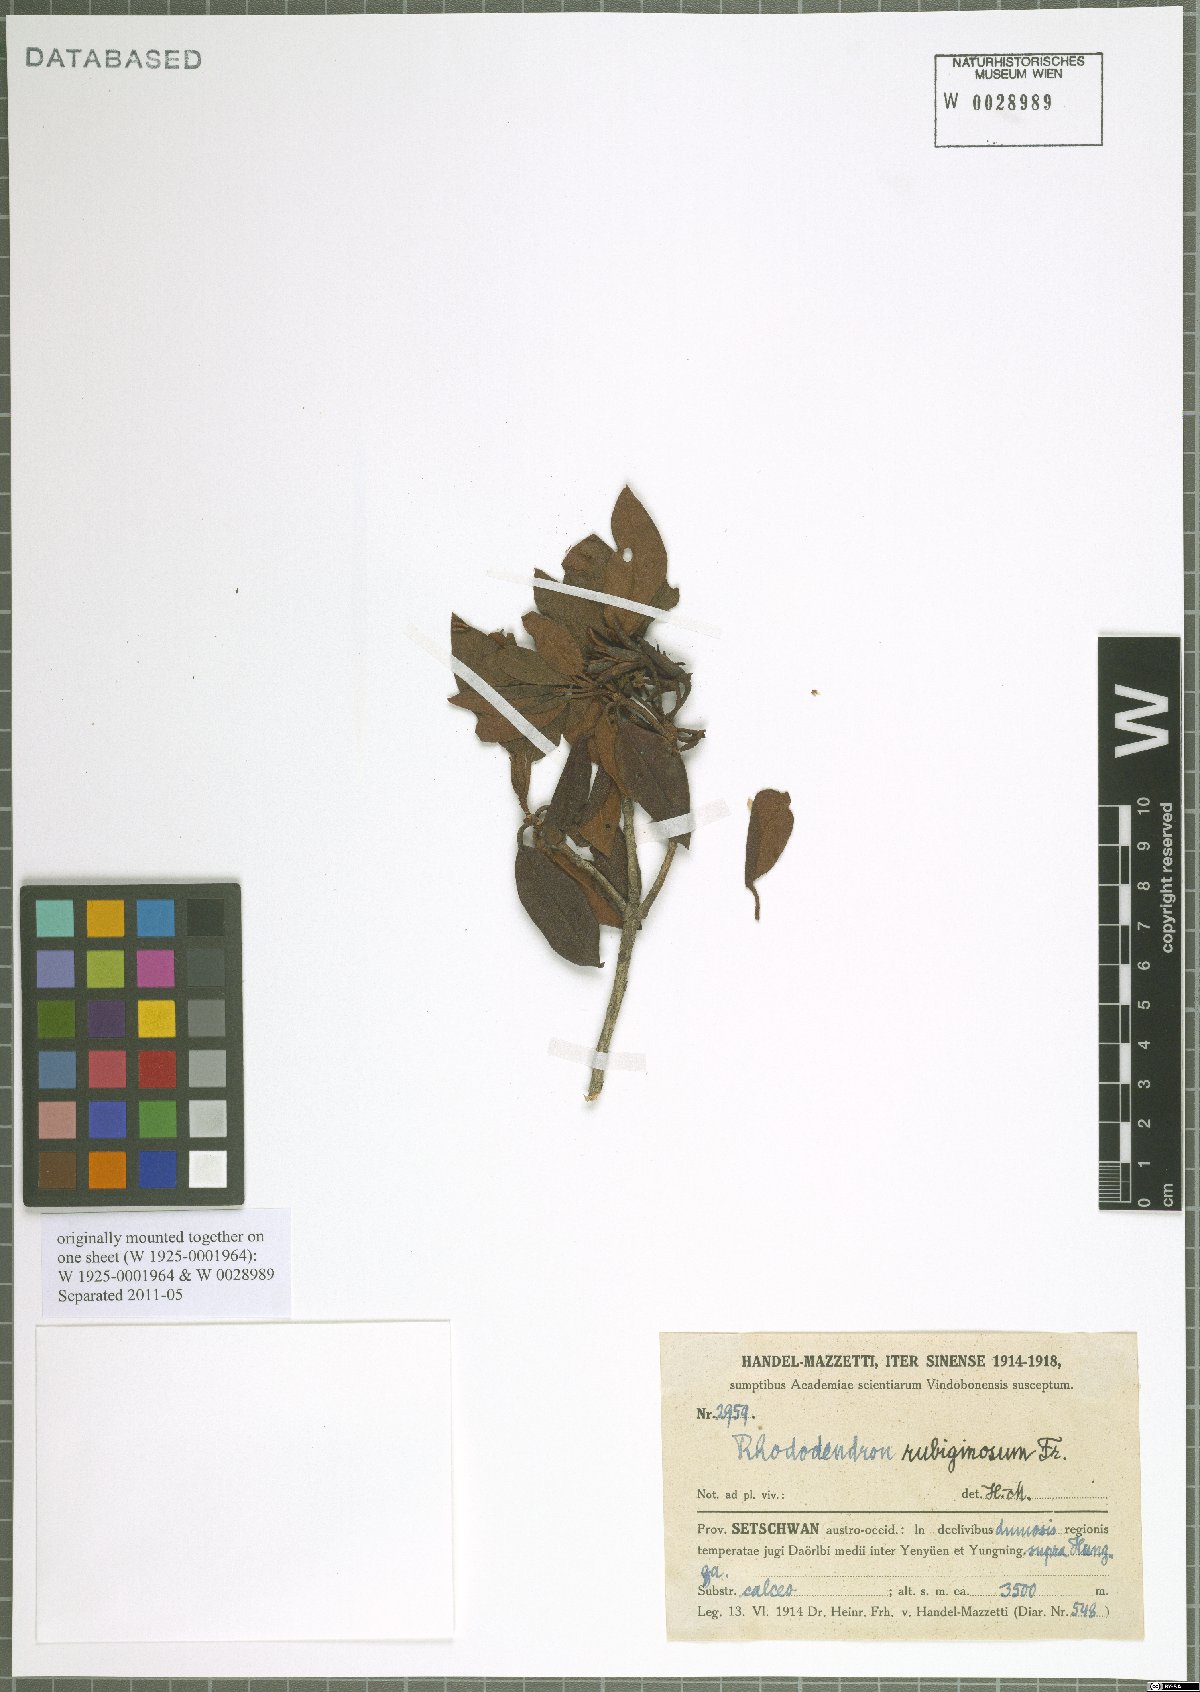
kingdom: Plantae
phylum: Tracheophyta
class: Magnoliopsida
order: Ericales
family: Ericaceae
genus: Rhododendron
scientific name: Rhododendron rubiginosum
